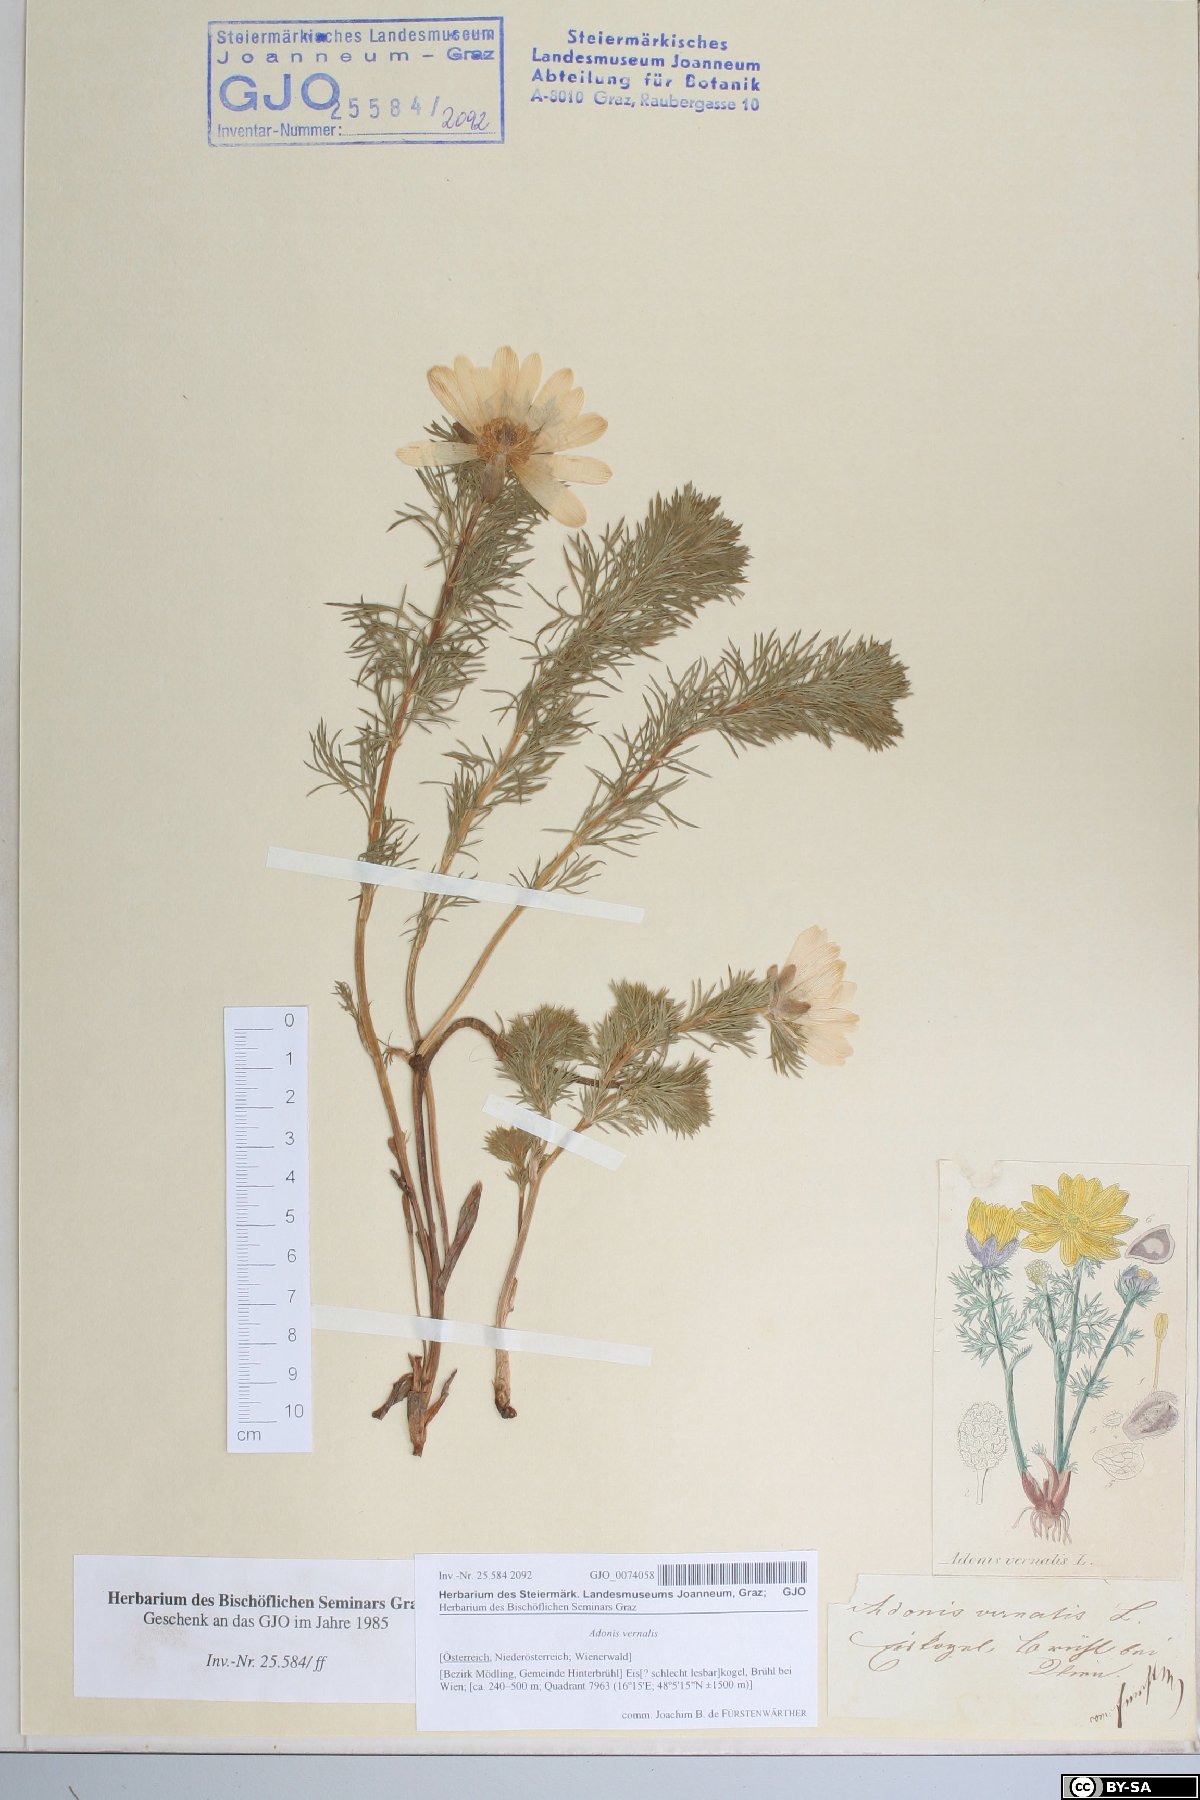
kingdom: Plantae
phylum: Tracheophyta
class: Magnoliopsida
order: Ranunculales
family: Ranunculaceae
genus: Adonis
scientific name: Adonis vernalis
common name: Yellow pheasants-eye
